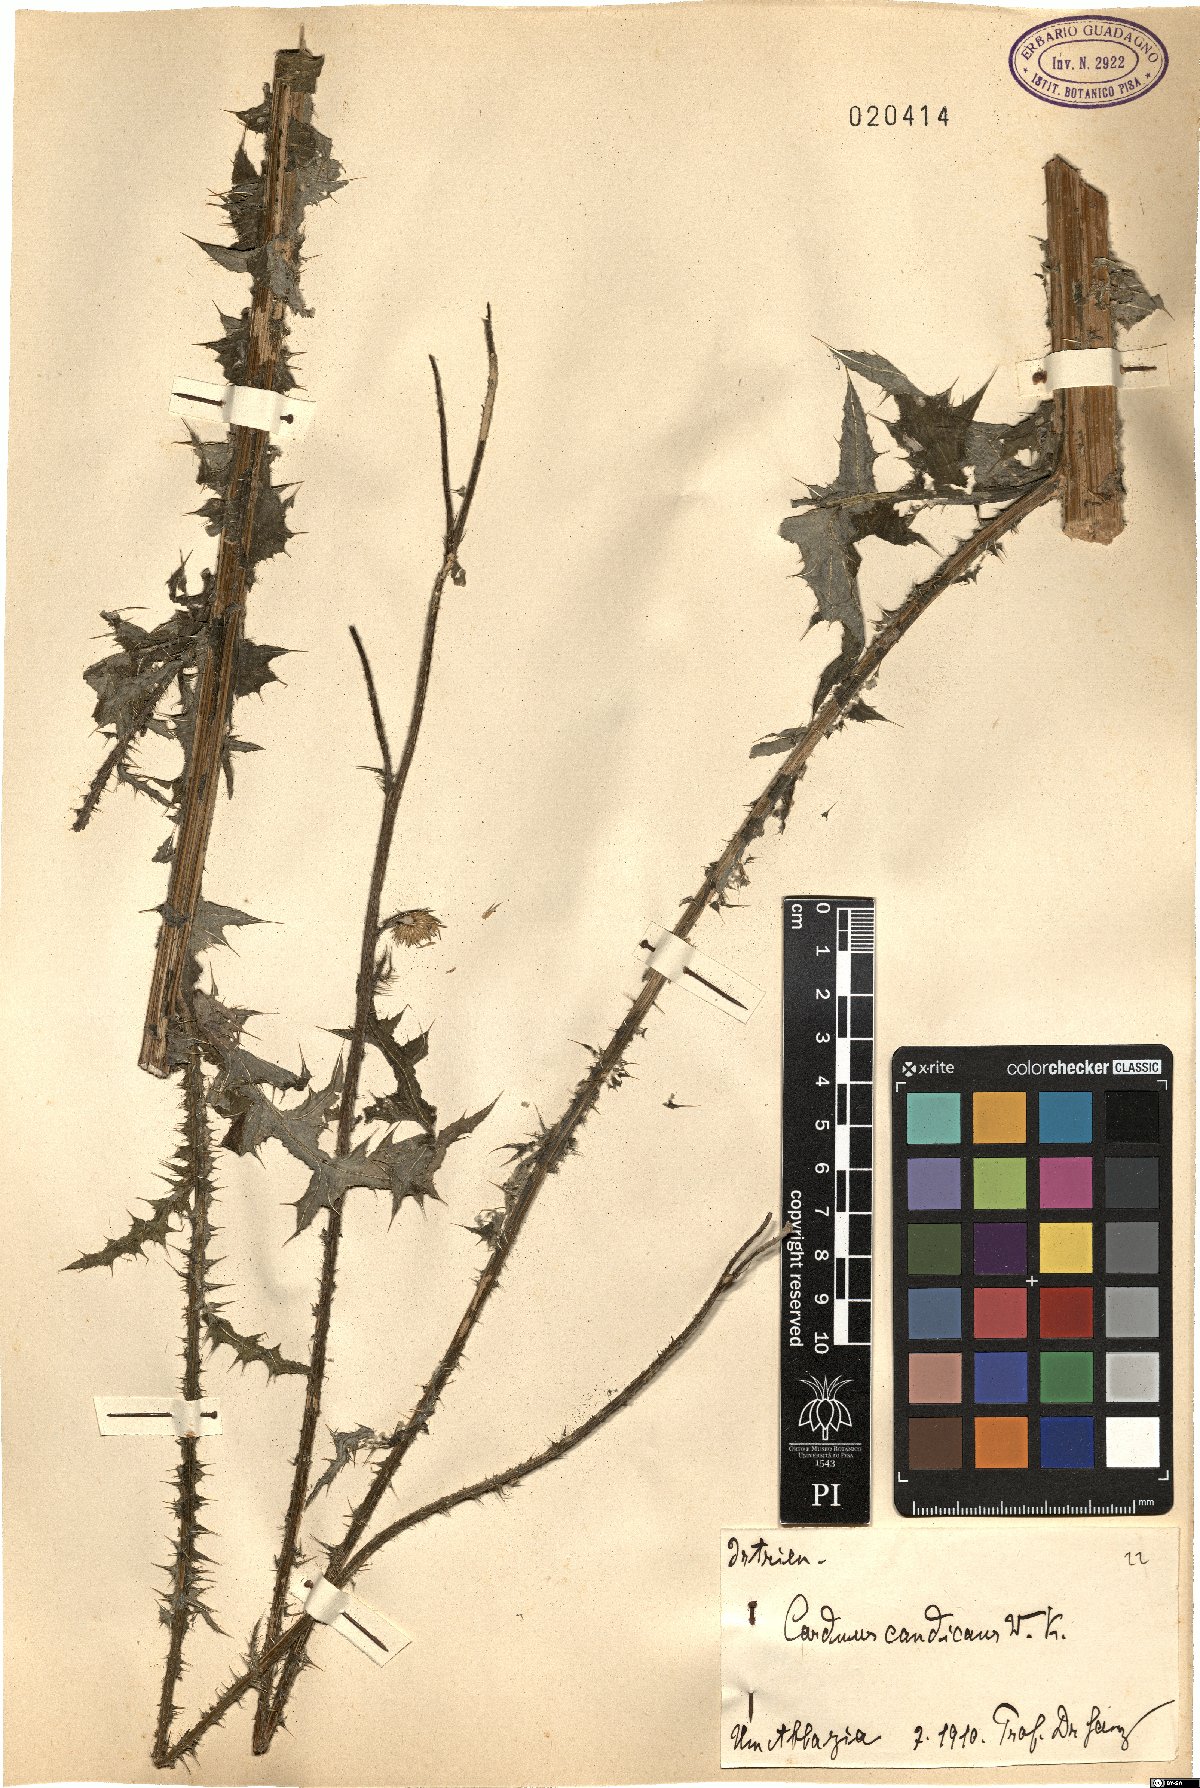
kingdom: Plantae
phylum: Tracheophyta
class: Magnoliopsida
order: Asterales
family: Asteraceae
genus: Carduus
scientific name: Carduus candicans
